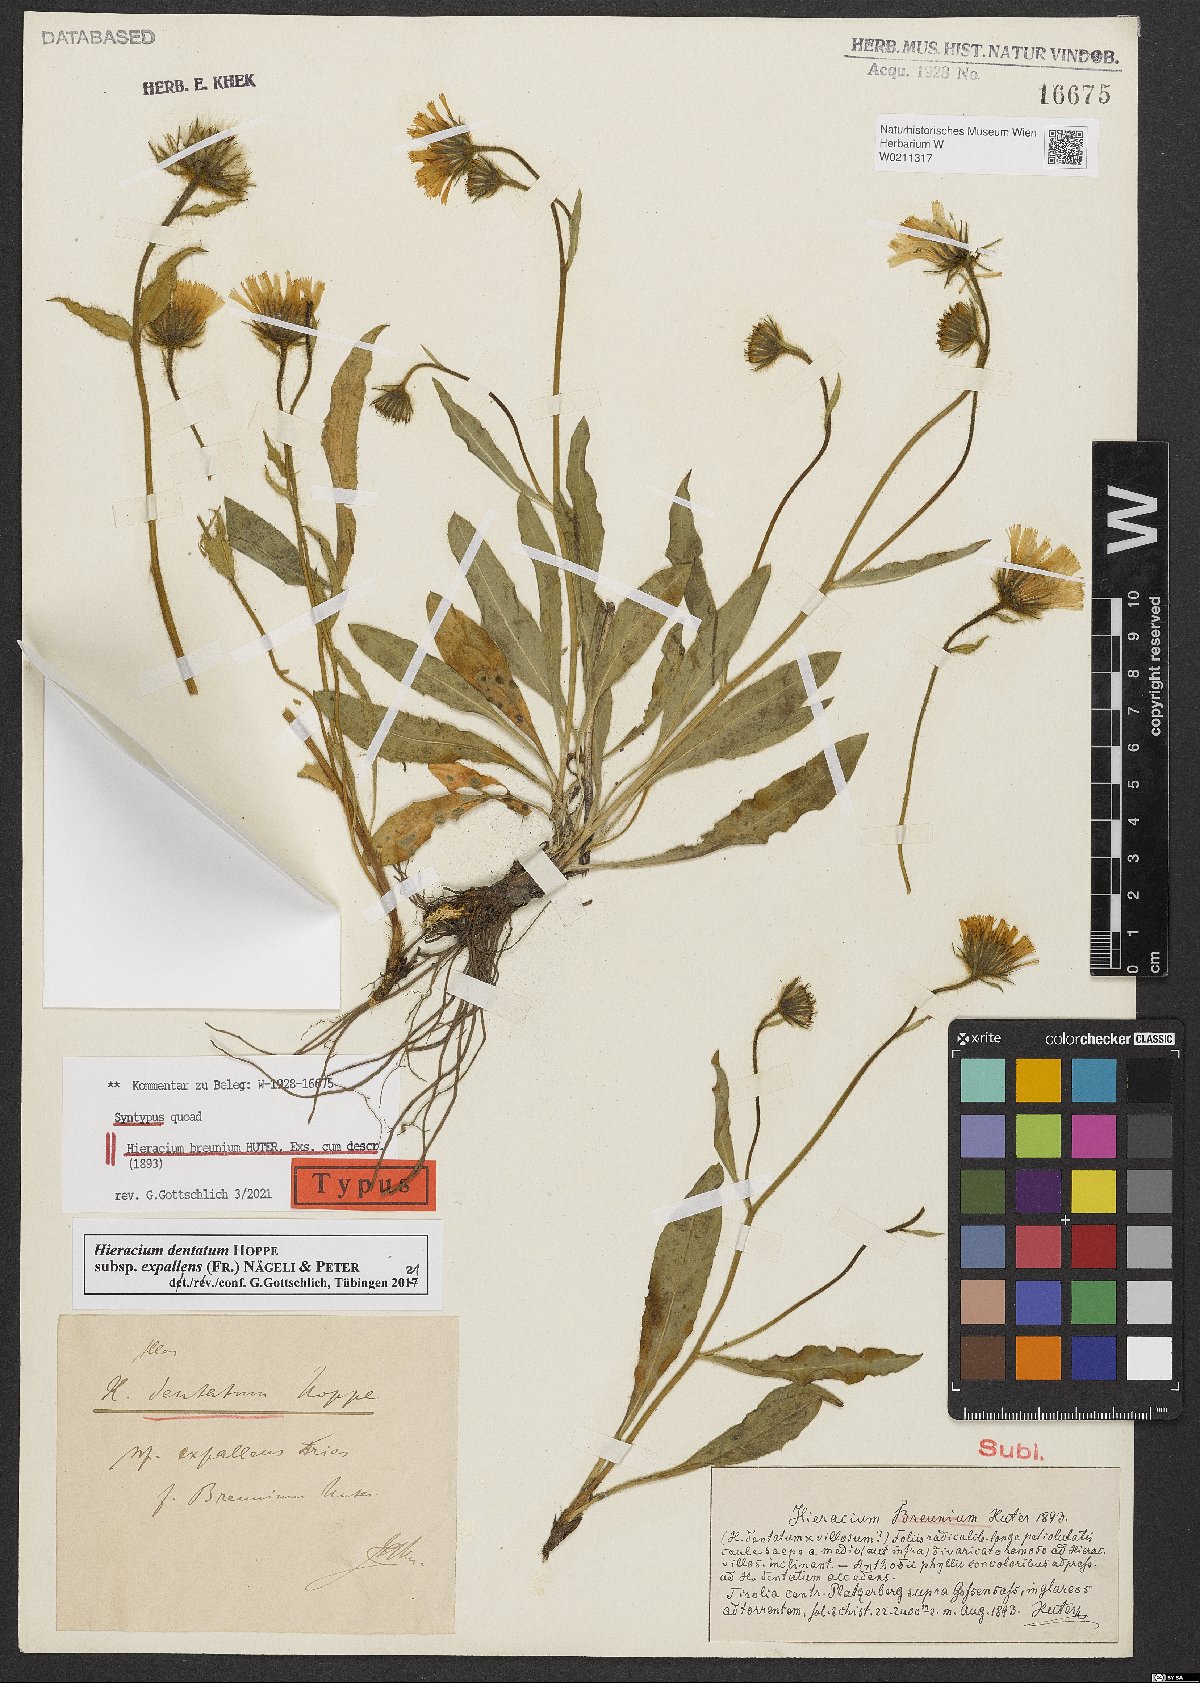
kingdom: Plantae
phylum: Tracheophyta
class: Magnoliopsida
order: Asterales
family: Asteraceae
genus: Hieracium
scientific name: Hieracium dentatum
